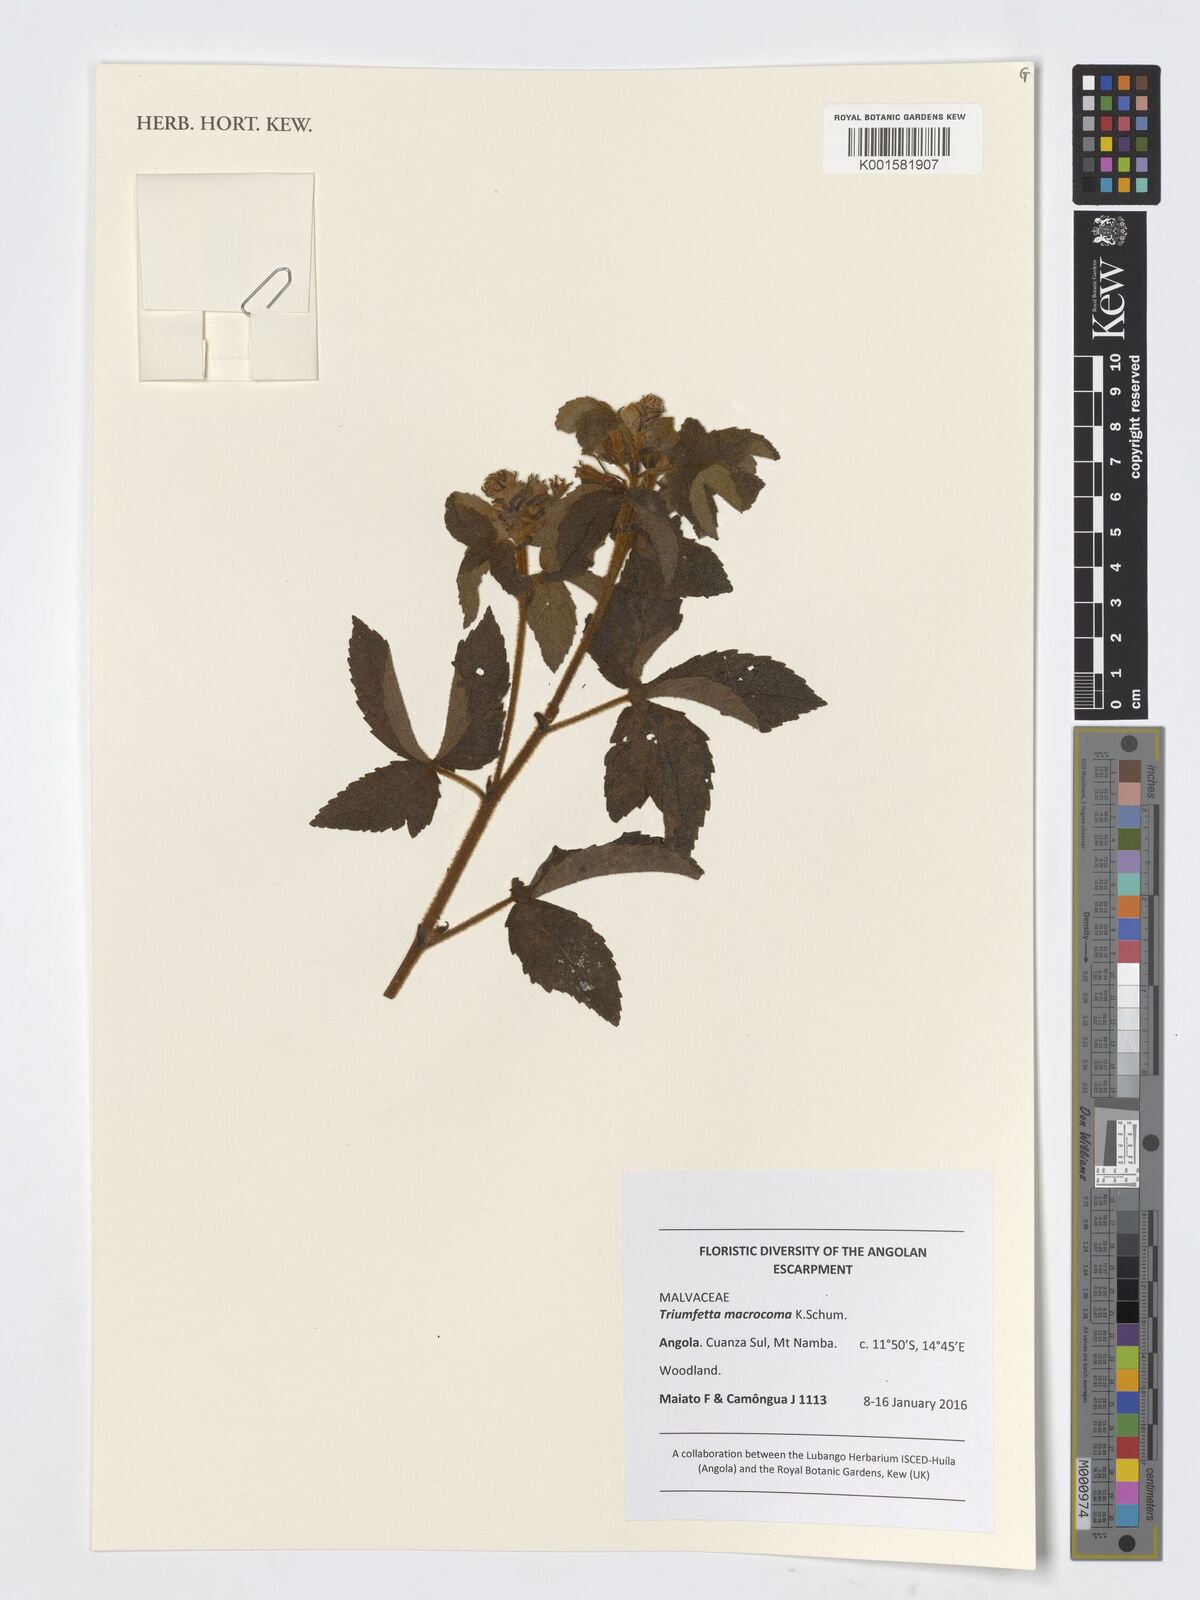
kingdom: Plantae
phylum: Tracheophyta
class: Magnoliopsida
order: Malvales
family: Malvaceae
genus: Triumfetta
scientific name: Triumfetta macrocoma
